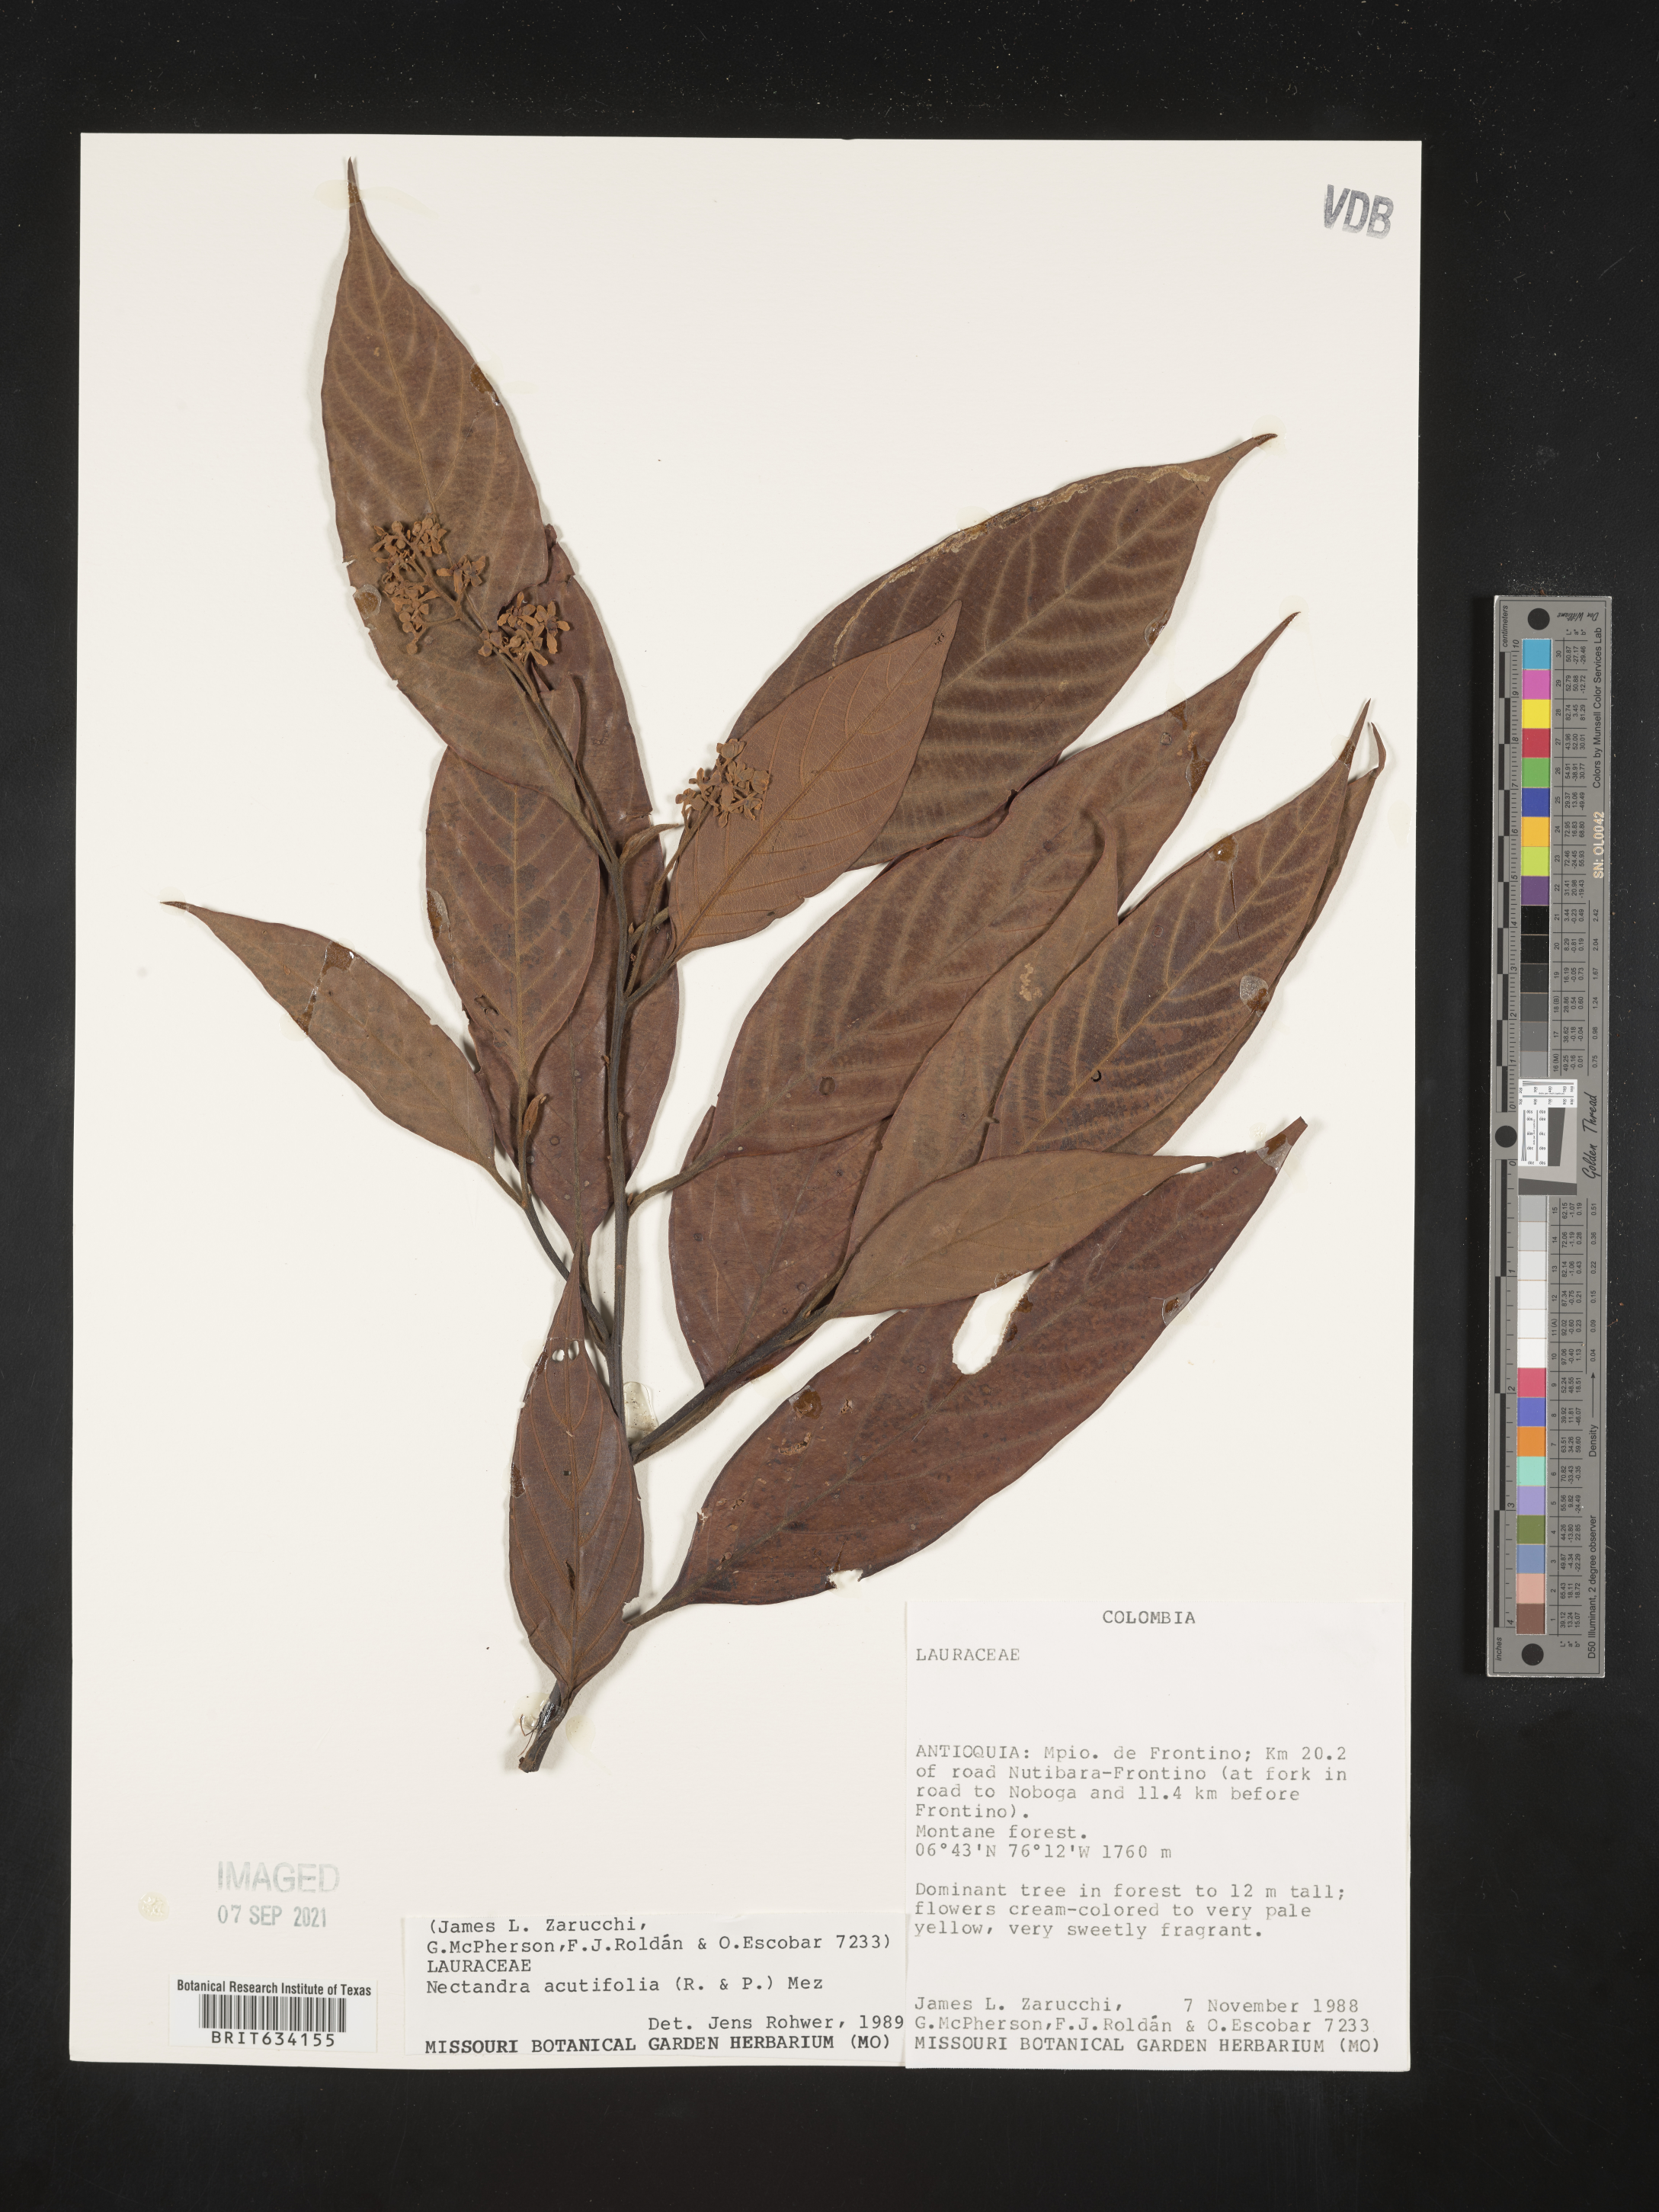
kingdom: Plantae
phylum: Tracheophyta
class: Magnoliopsida
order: Laurales
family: Lauraceae
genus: Nectandra
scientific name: Nectandra
